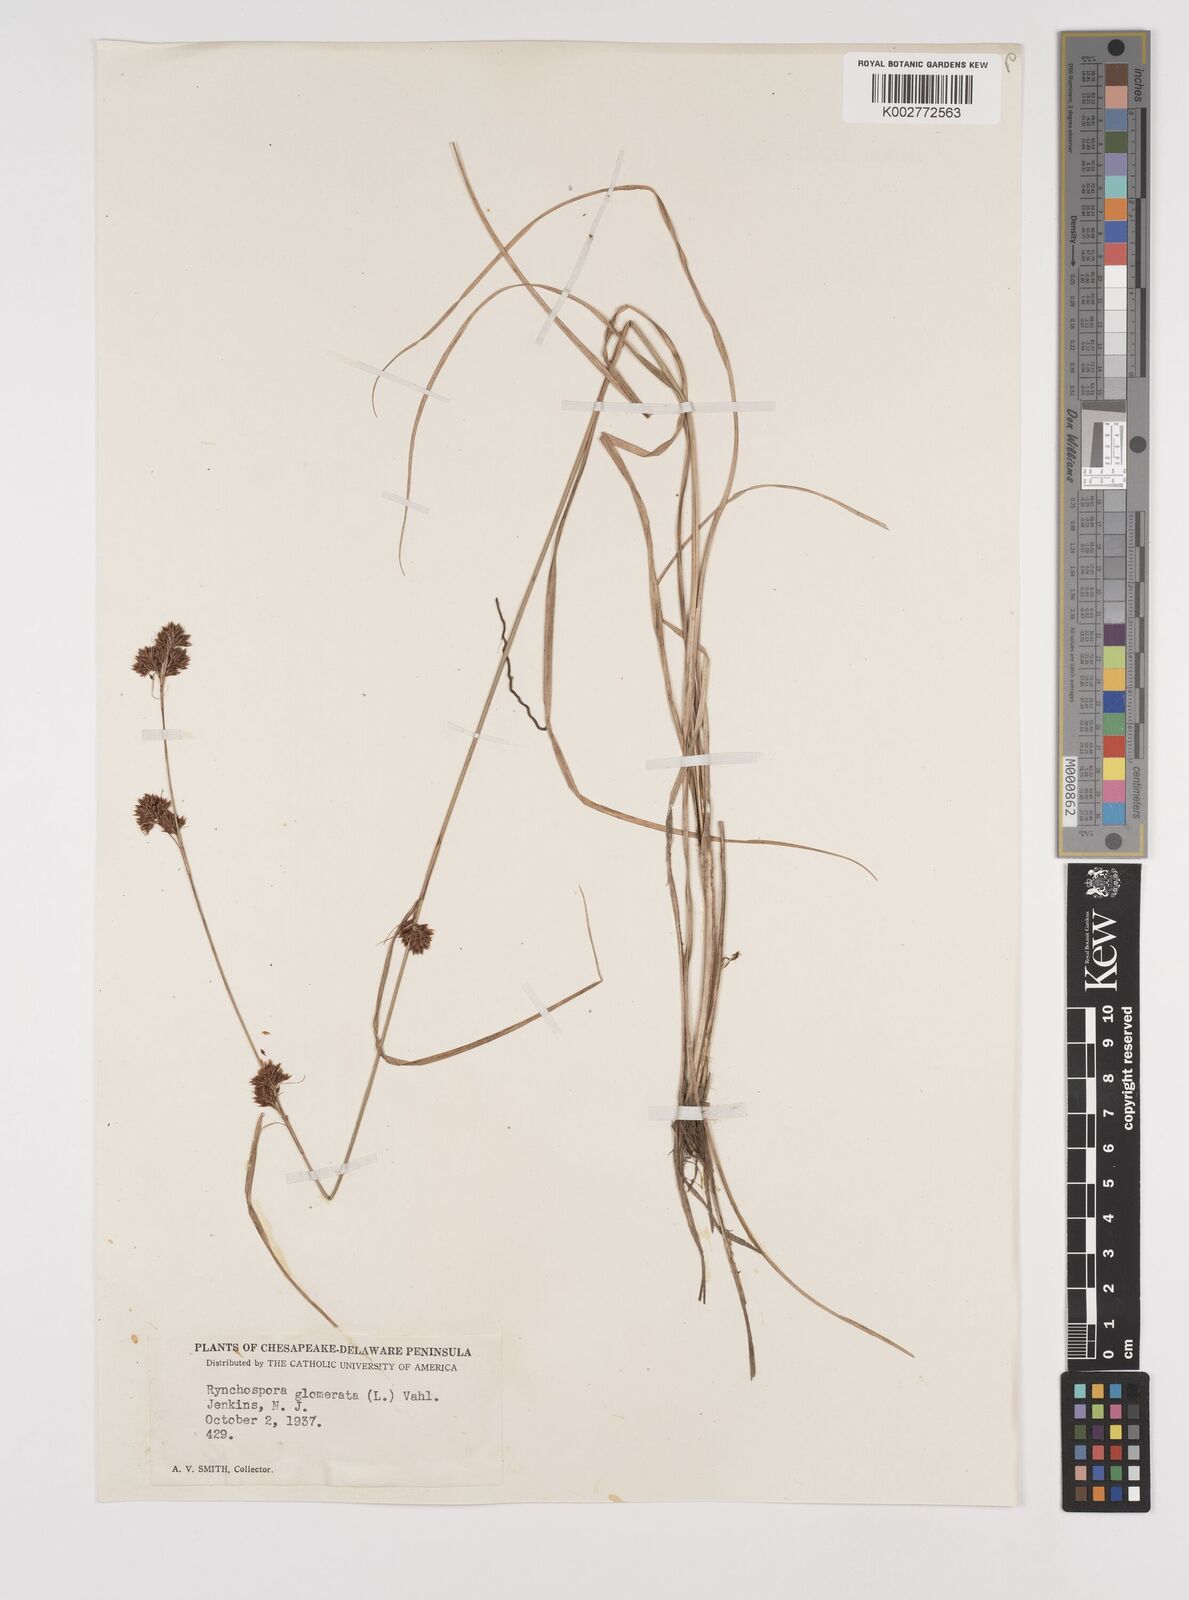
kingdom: Plantae
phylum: Tracheophyta
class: Liliopsida
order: Poales
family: Cyperaceae
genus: Rhynchospora
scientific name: Rhynchospora glomerata
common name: Cluster beak sedge
